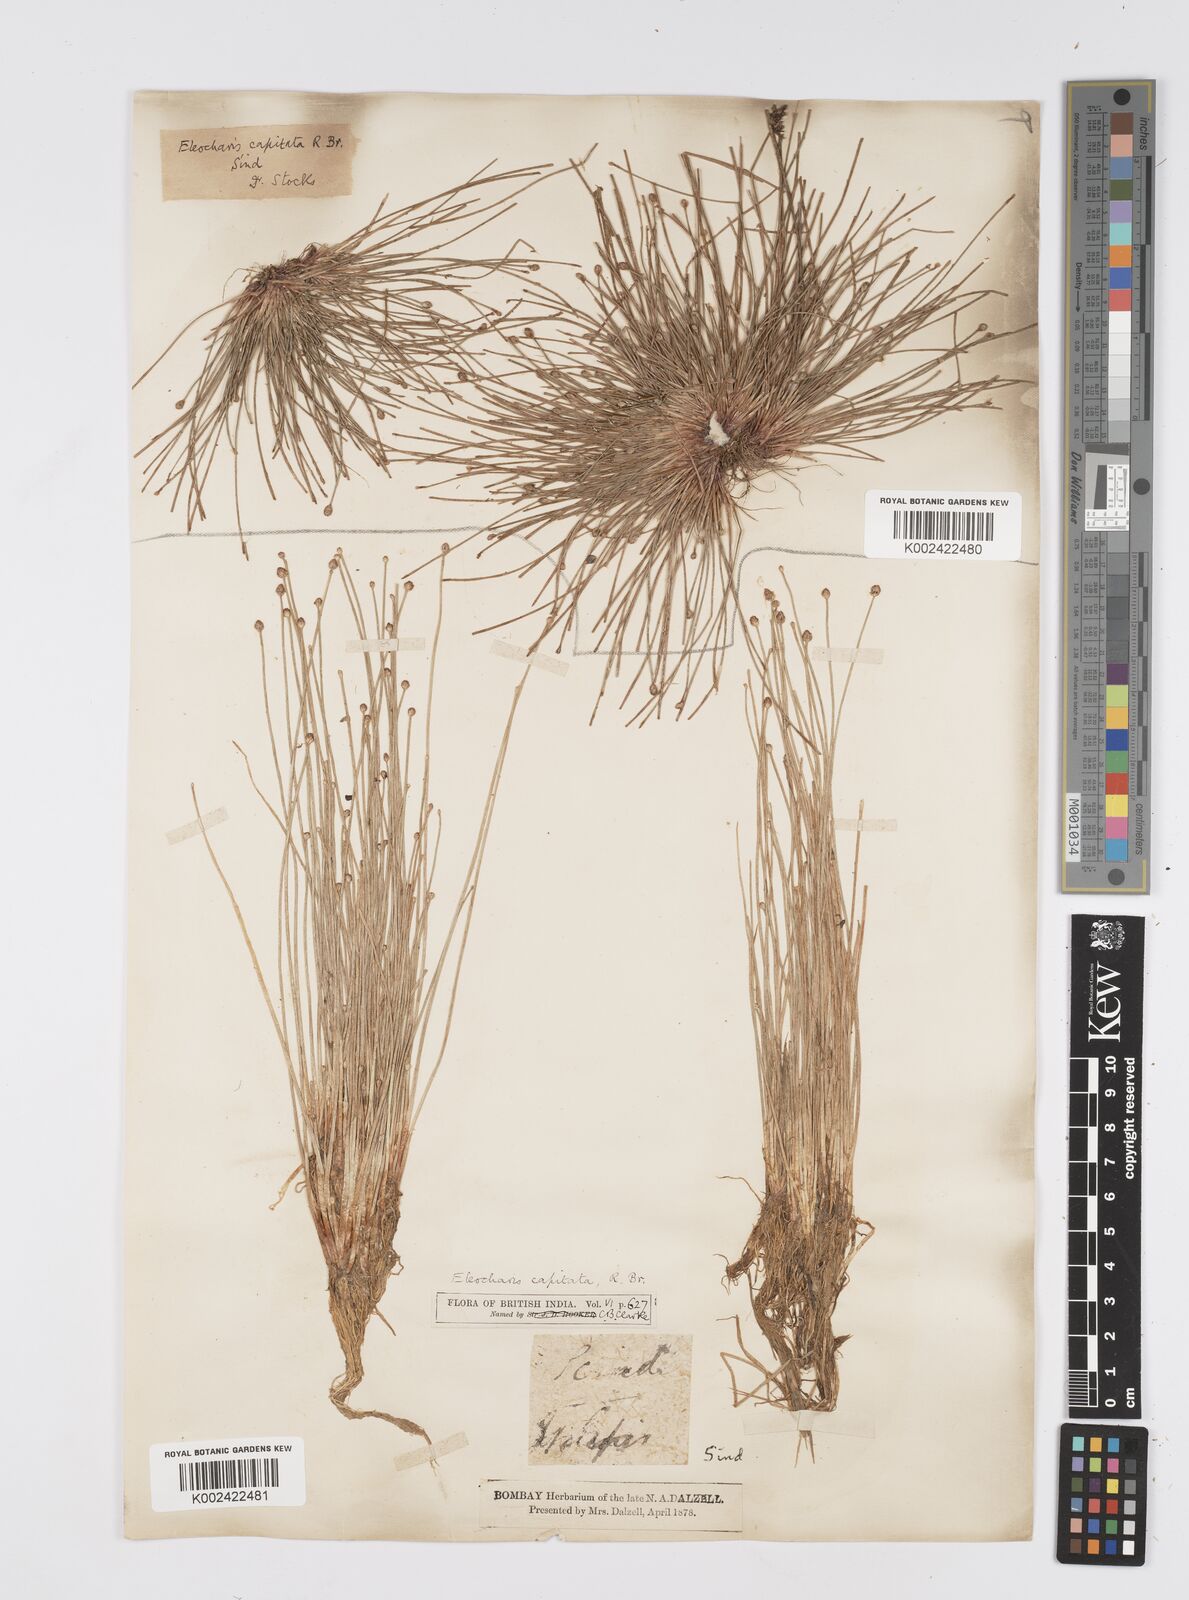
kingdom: Plantae
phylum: Tracheophyta
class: Liliopsida
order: Poales
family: Cyperaceae
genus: Eleocharis
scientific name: Eleocharis geniculata
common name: Canada spikesedge
